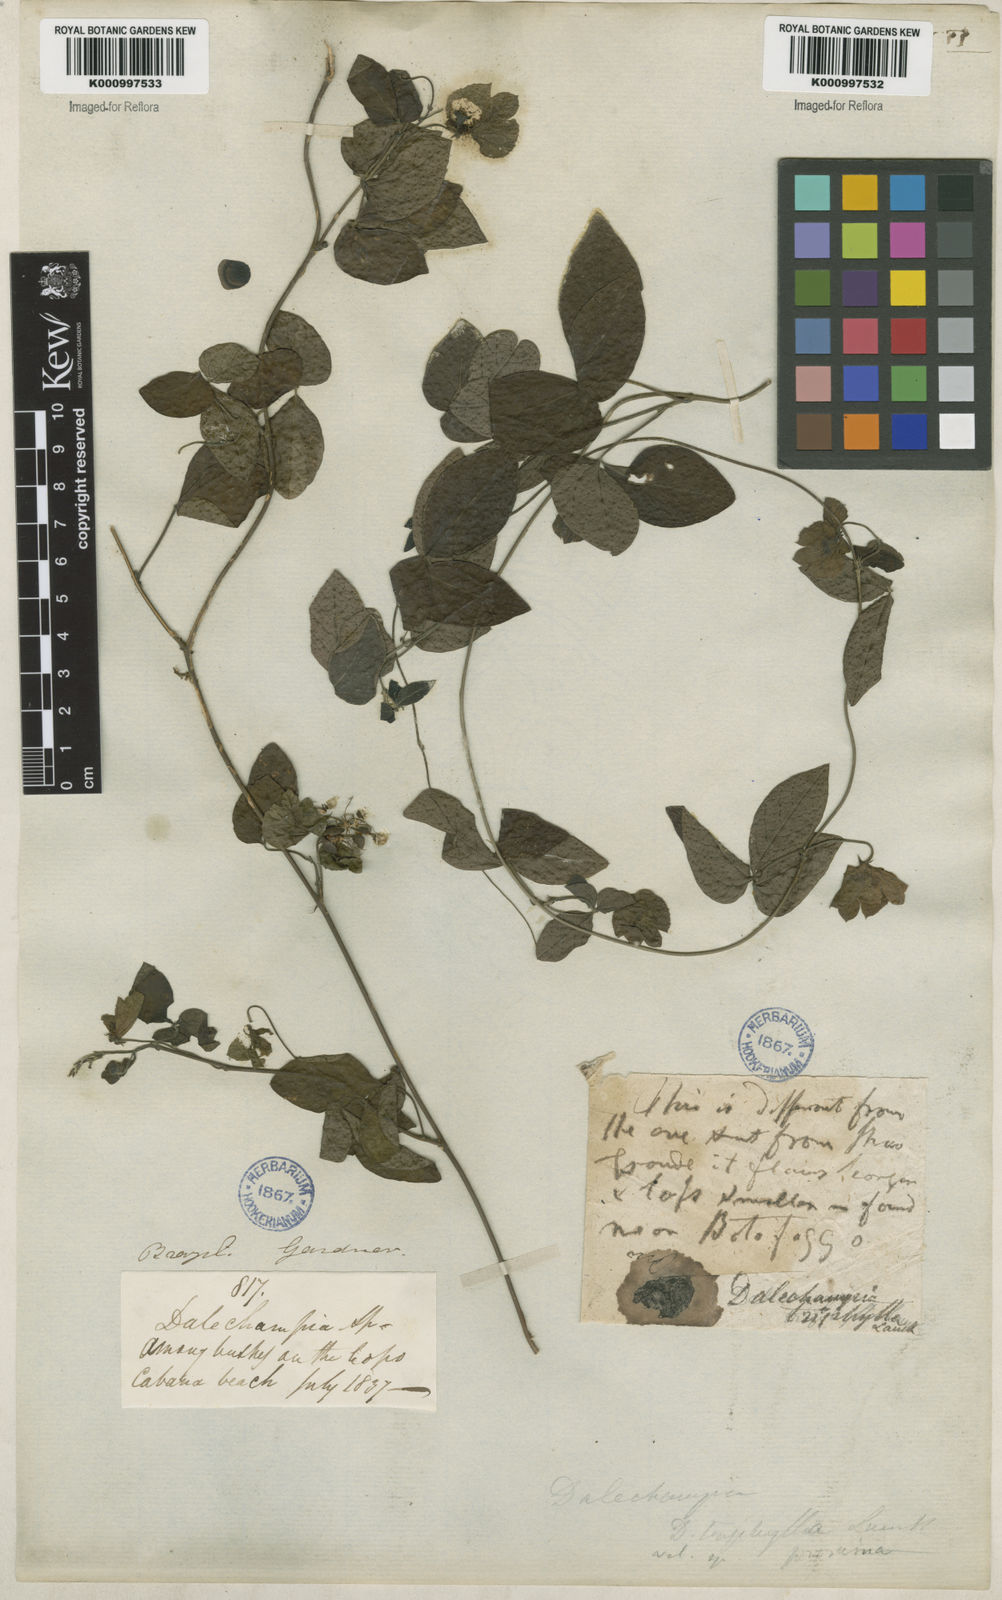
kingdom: Plantae
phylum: Tracheophyta
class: Magnoliopsida
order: Malpighiales
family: Euphorbiaceae
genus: Dalechampia
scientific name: Dalechampia triphylla
